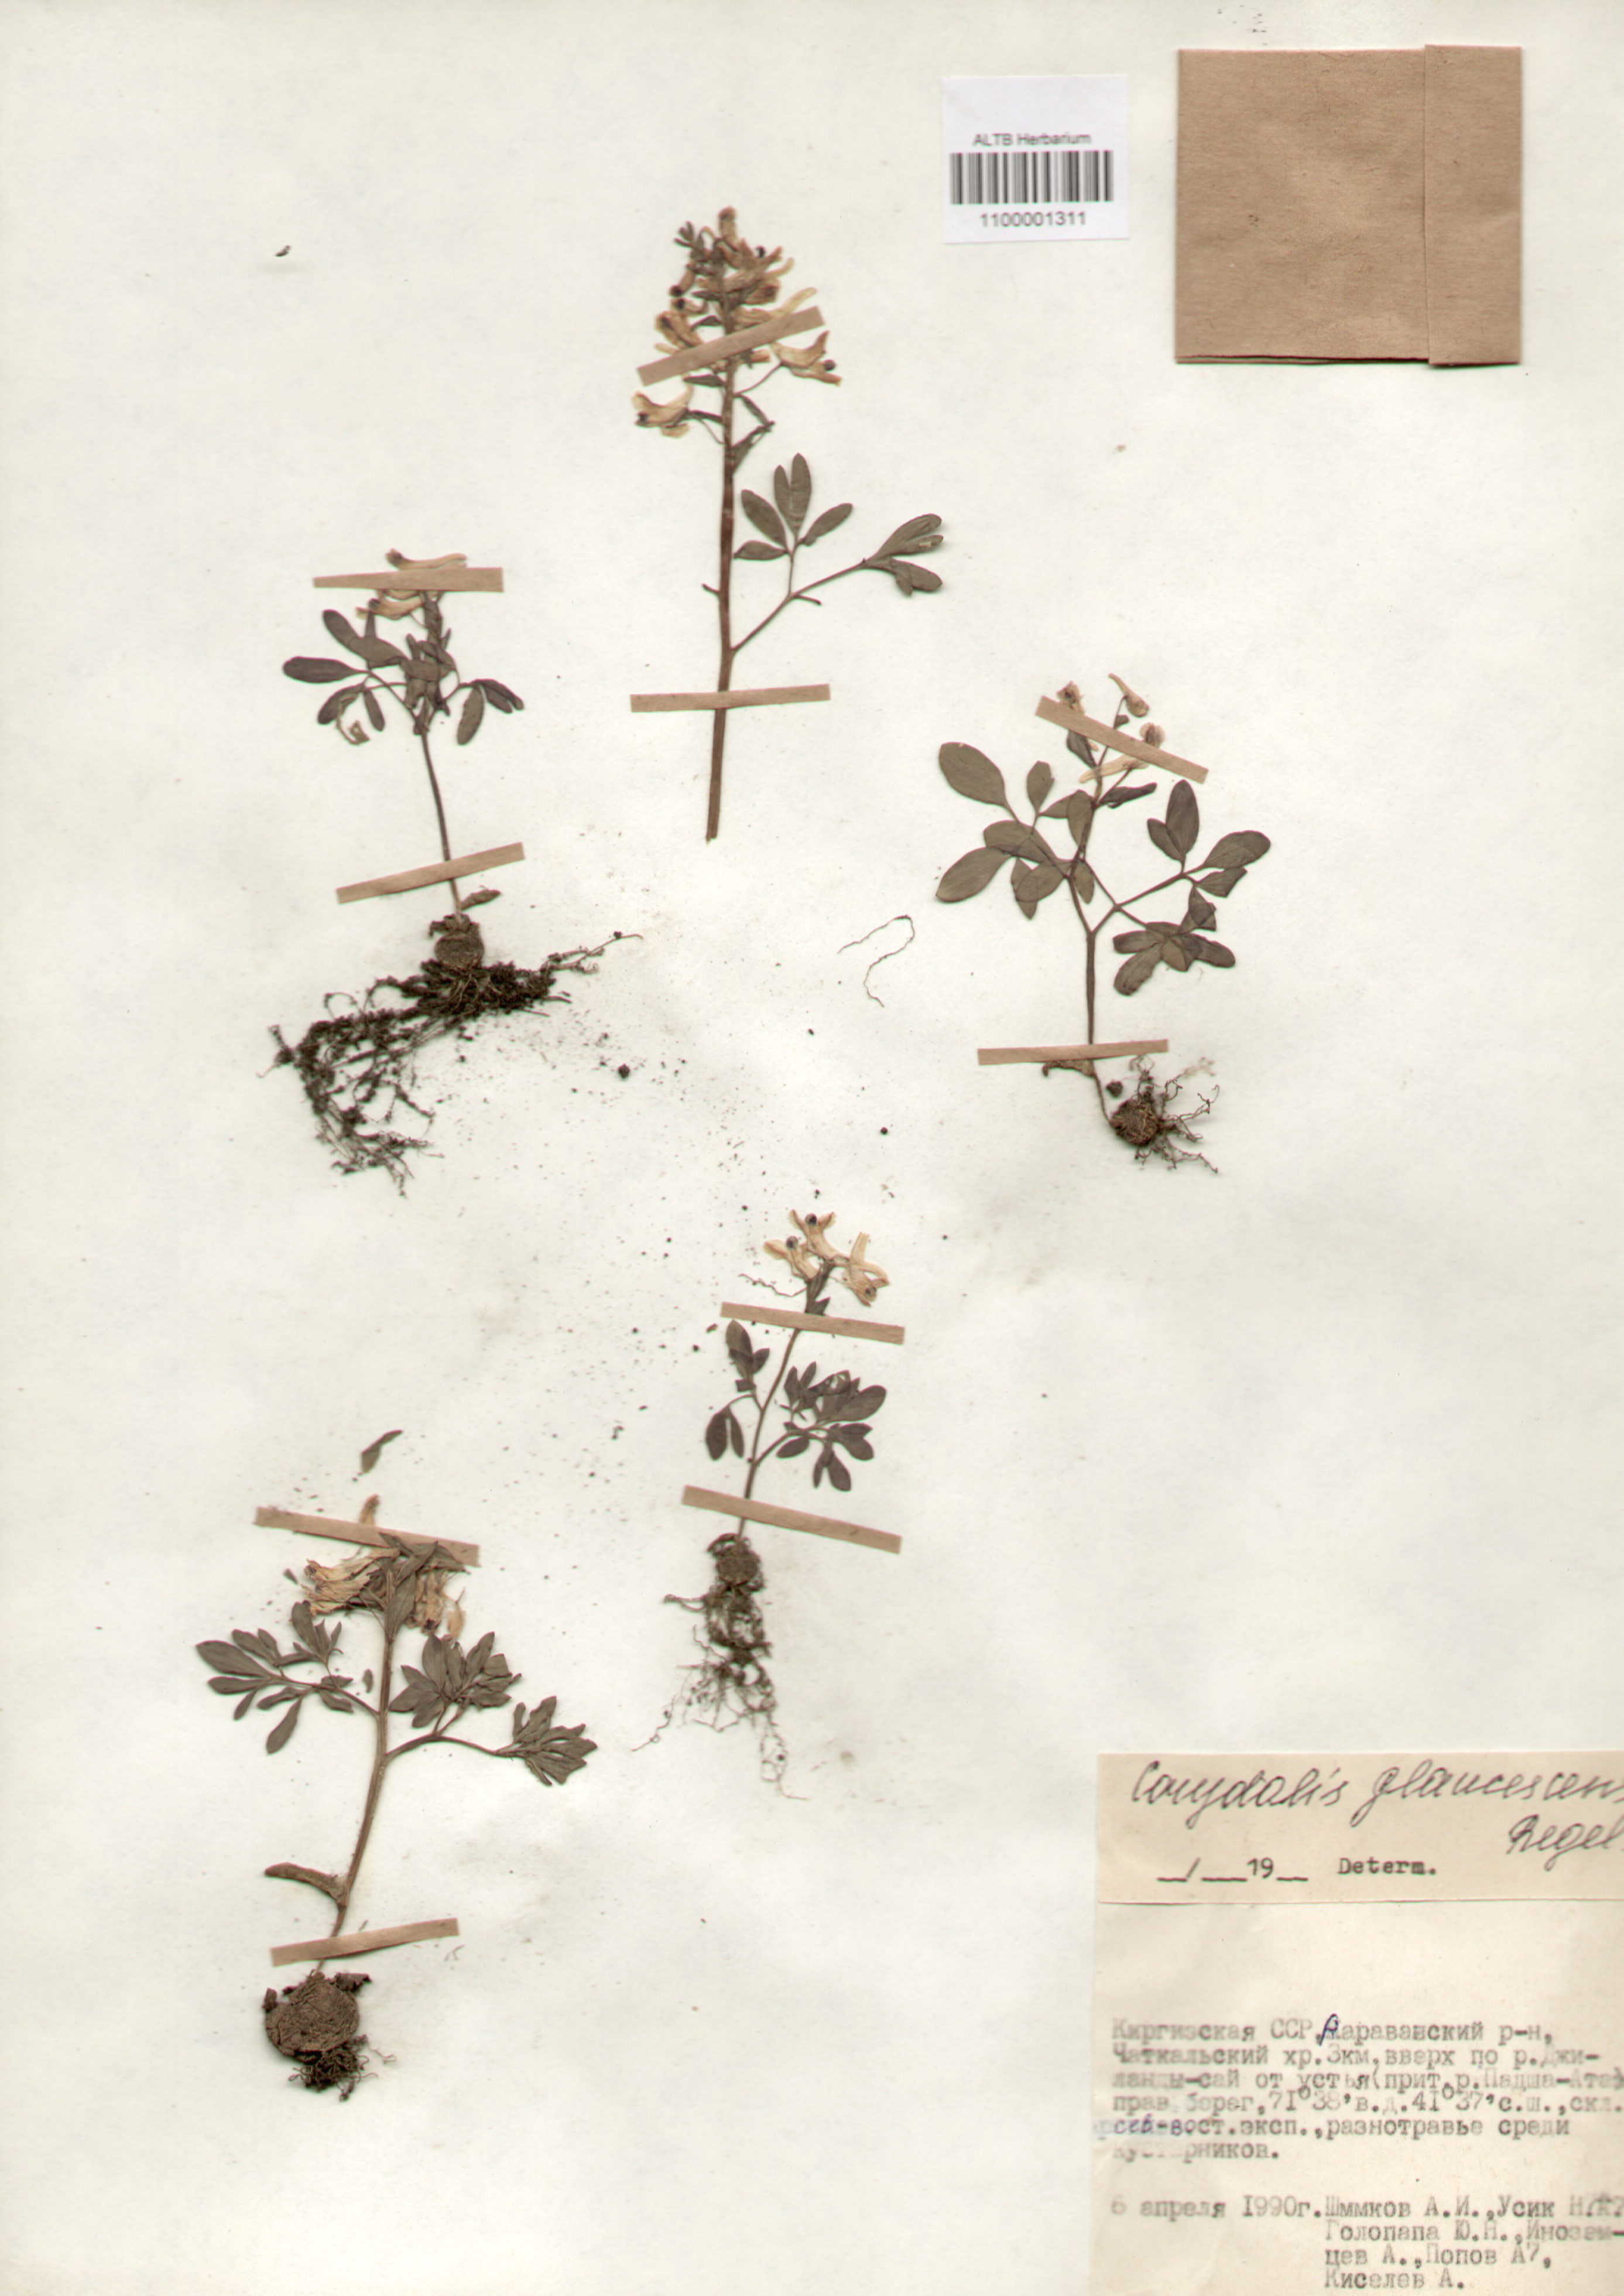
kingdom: Plantae
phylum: Tracheophyta
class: Magnoliopsida
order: Ranunculales
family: Papaveraceae
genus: Corydalis
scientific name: Corydalis glaucescens
